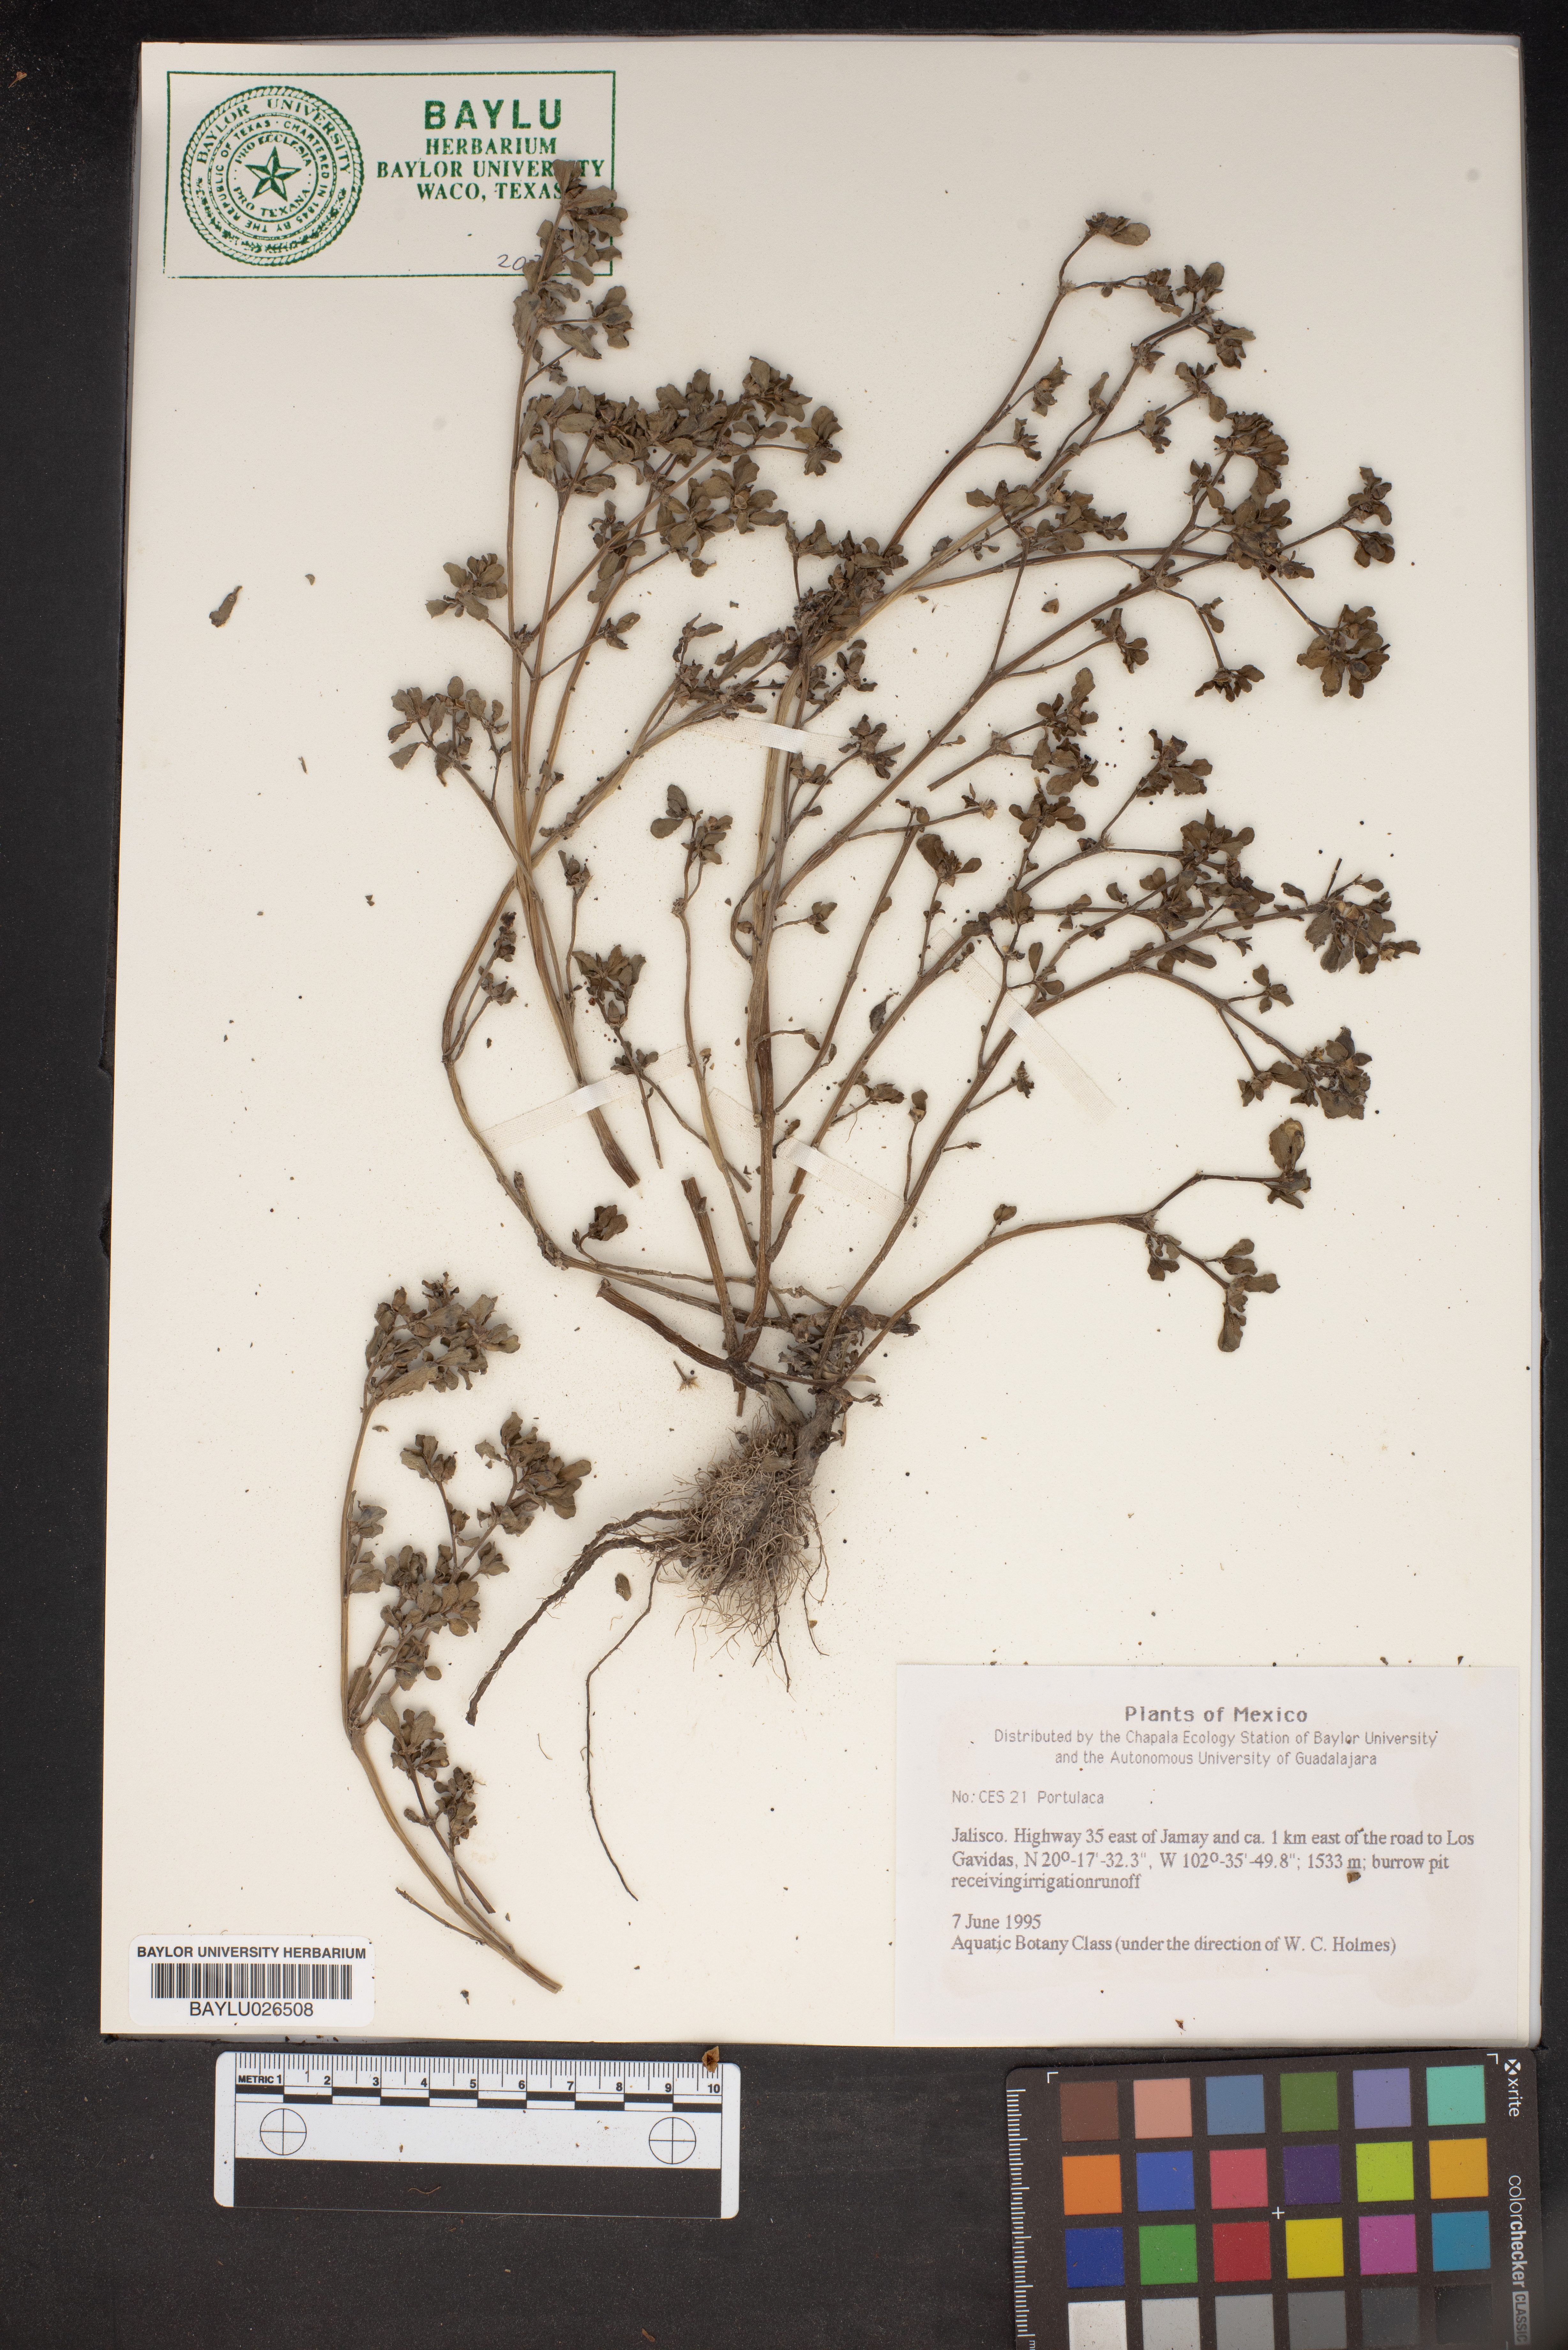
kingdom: Plantae
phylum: Tracheophyta
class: Magnoliopsida
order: Caryophyllales
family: Portulacaceae
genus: Portulaca
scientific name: Portulaca
